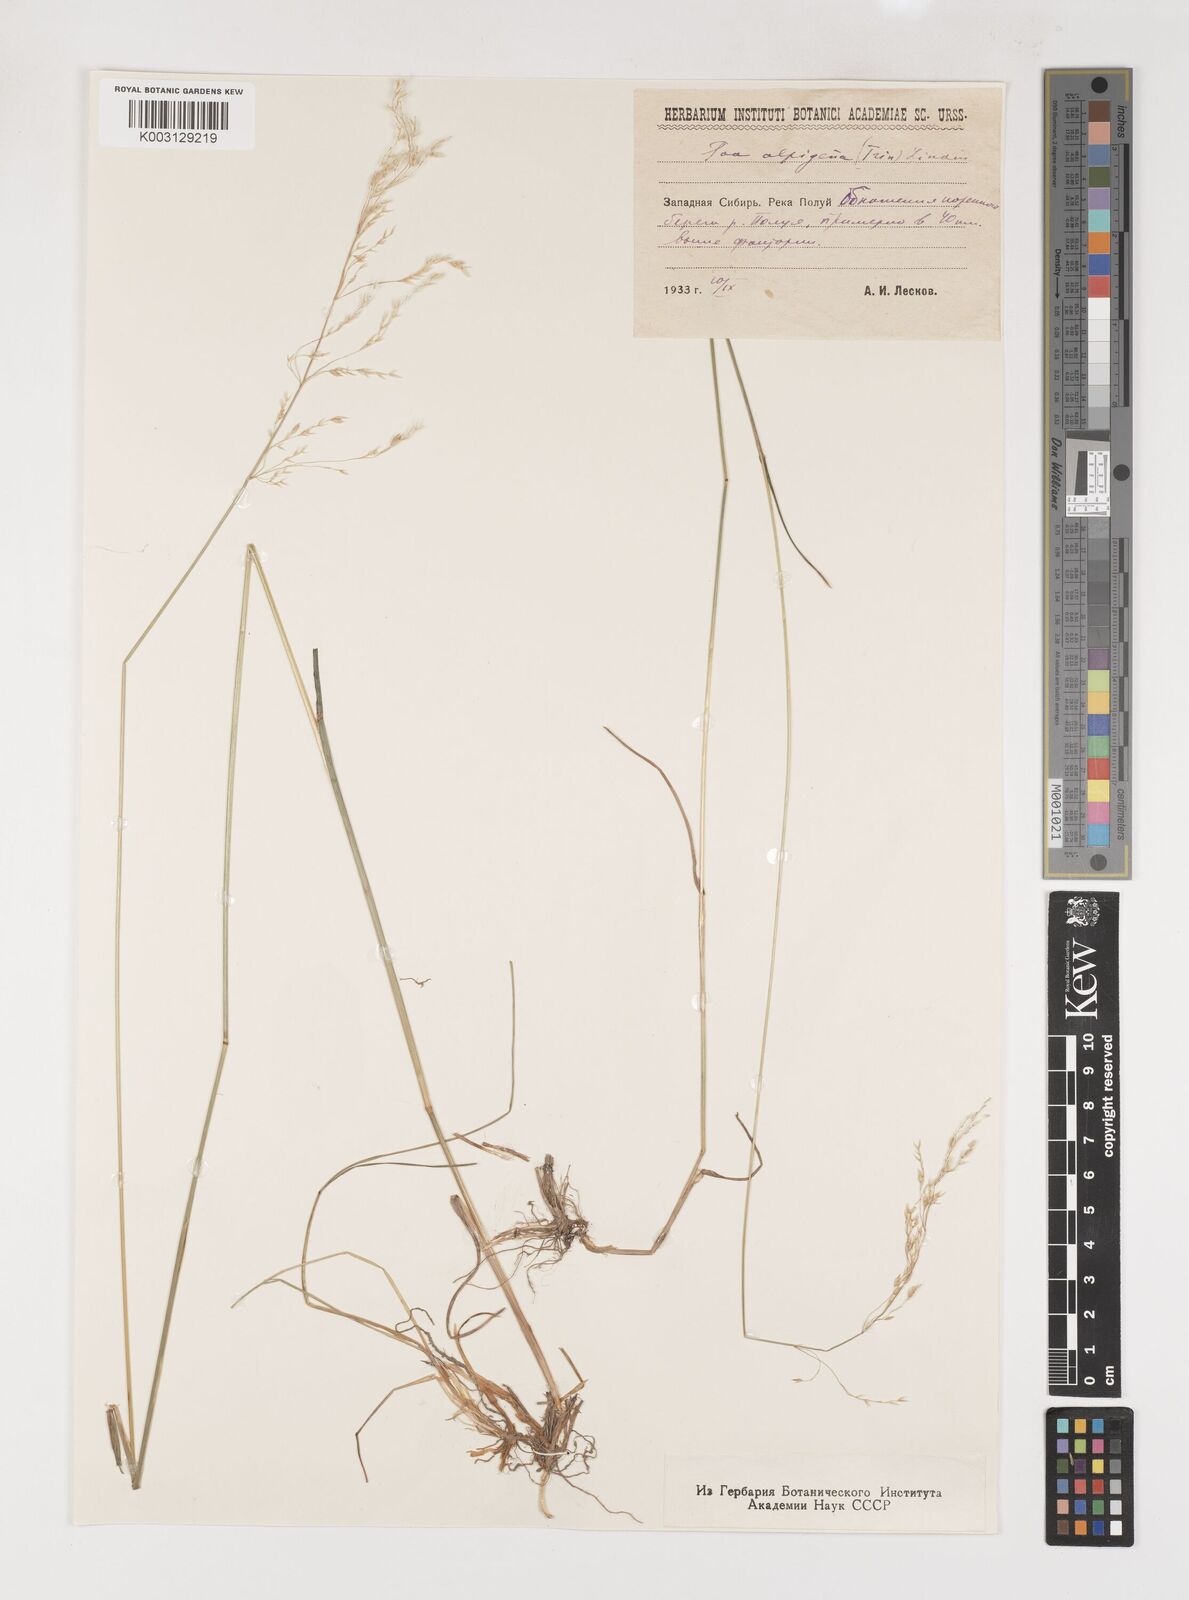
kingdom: Plantae
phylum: Tracheophyta
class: Liliopsida
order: Poales
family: Poaceae
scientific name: Poaceae
